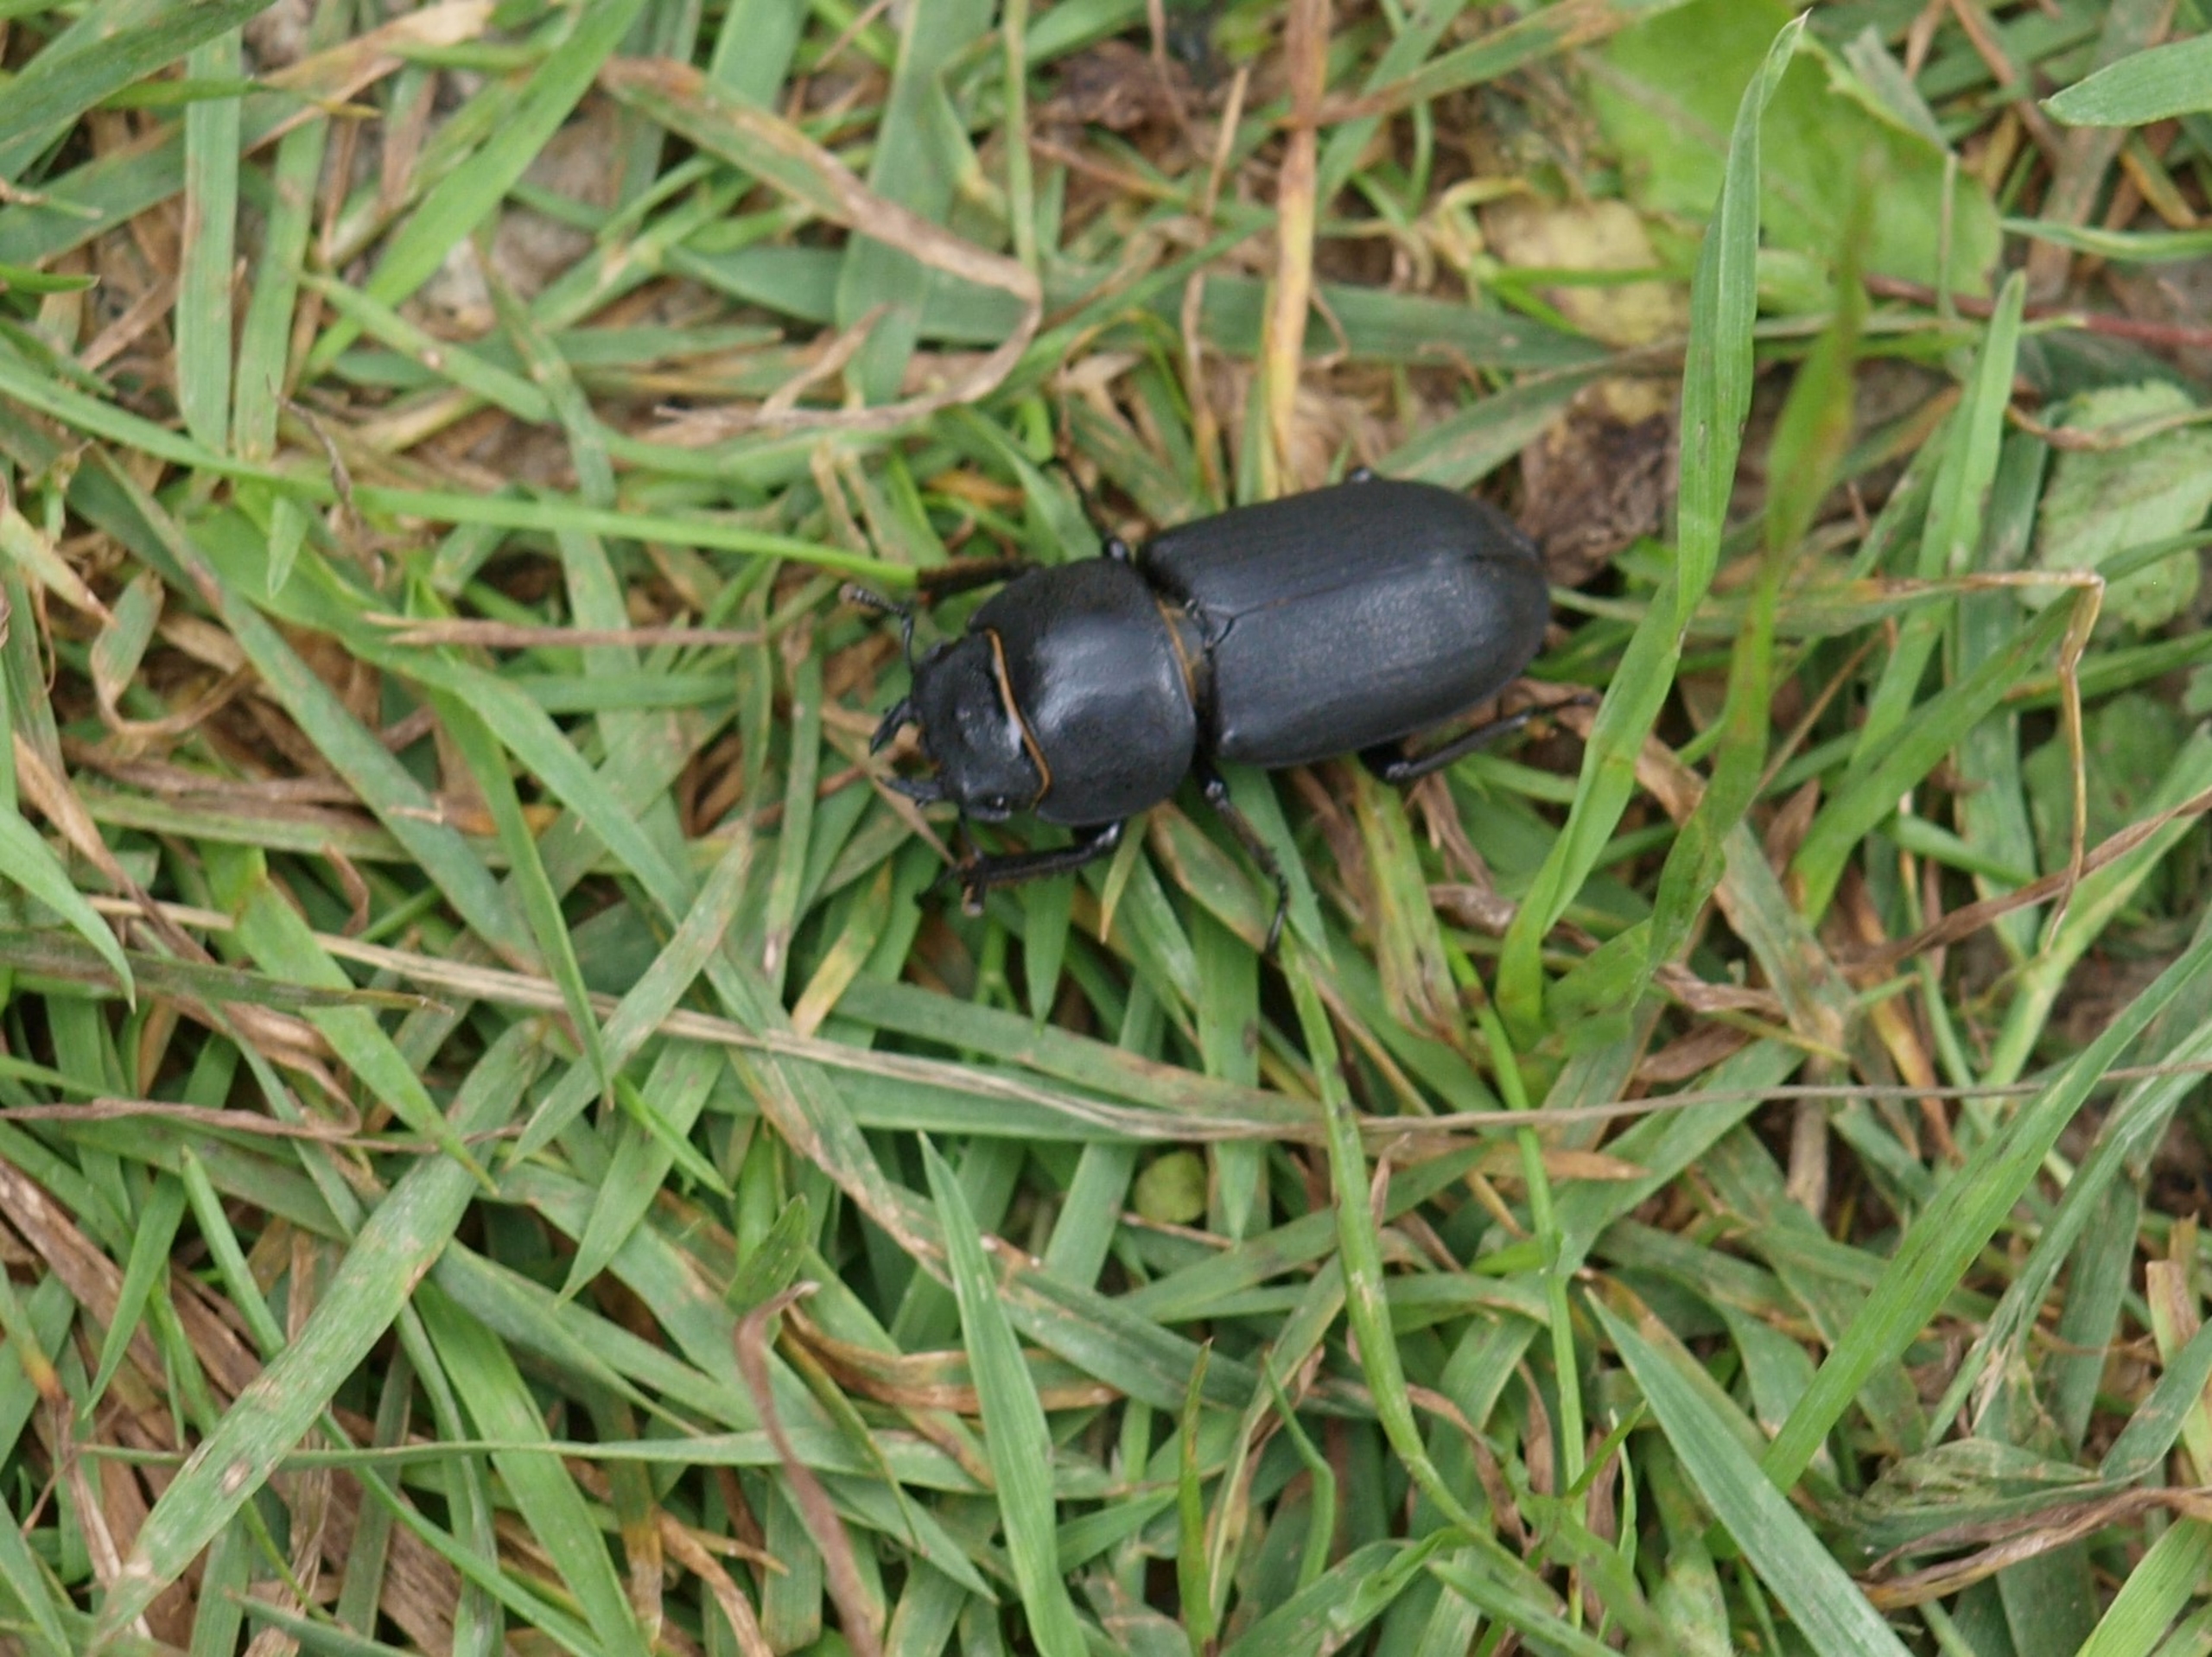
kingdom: Animalia
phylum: Arthropoda
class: Insecta
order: Coleoptera
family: Lucanidae
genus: Dorcus
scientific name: Dorcus parallelipipedus
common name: Bøghjort
